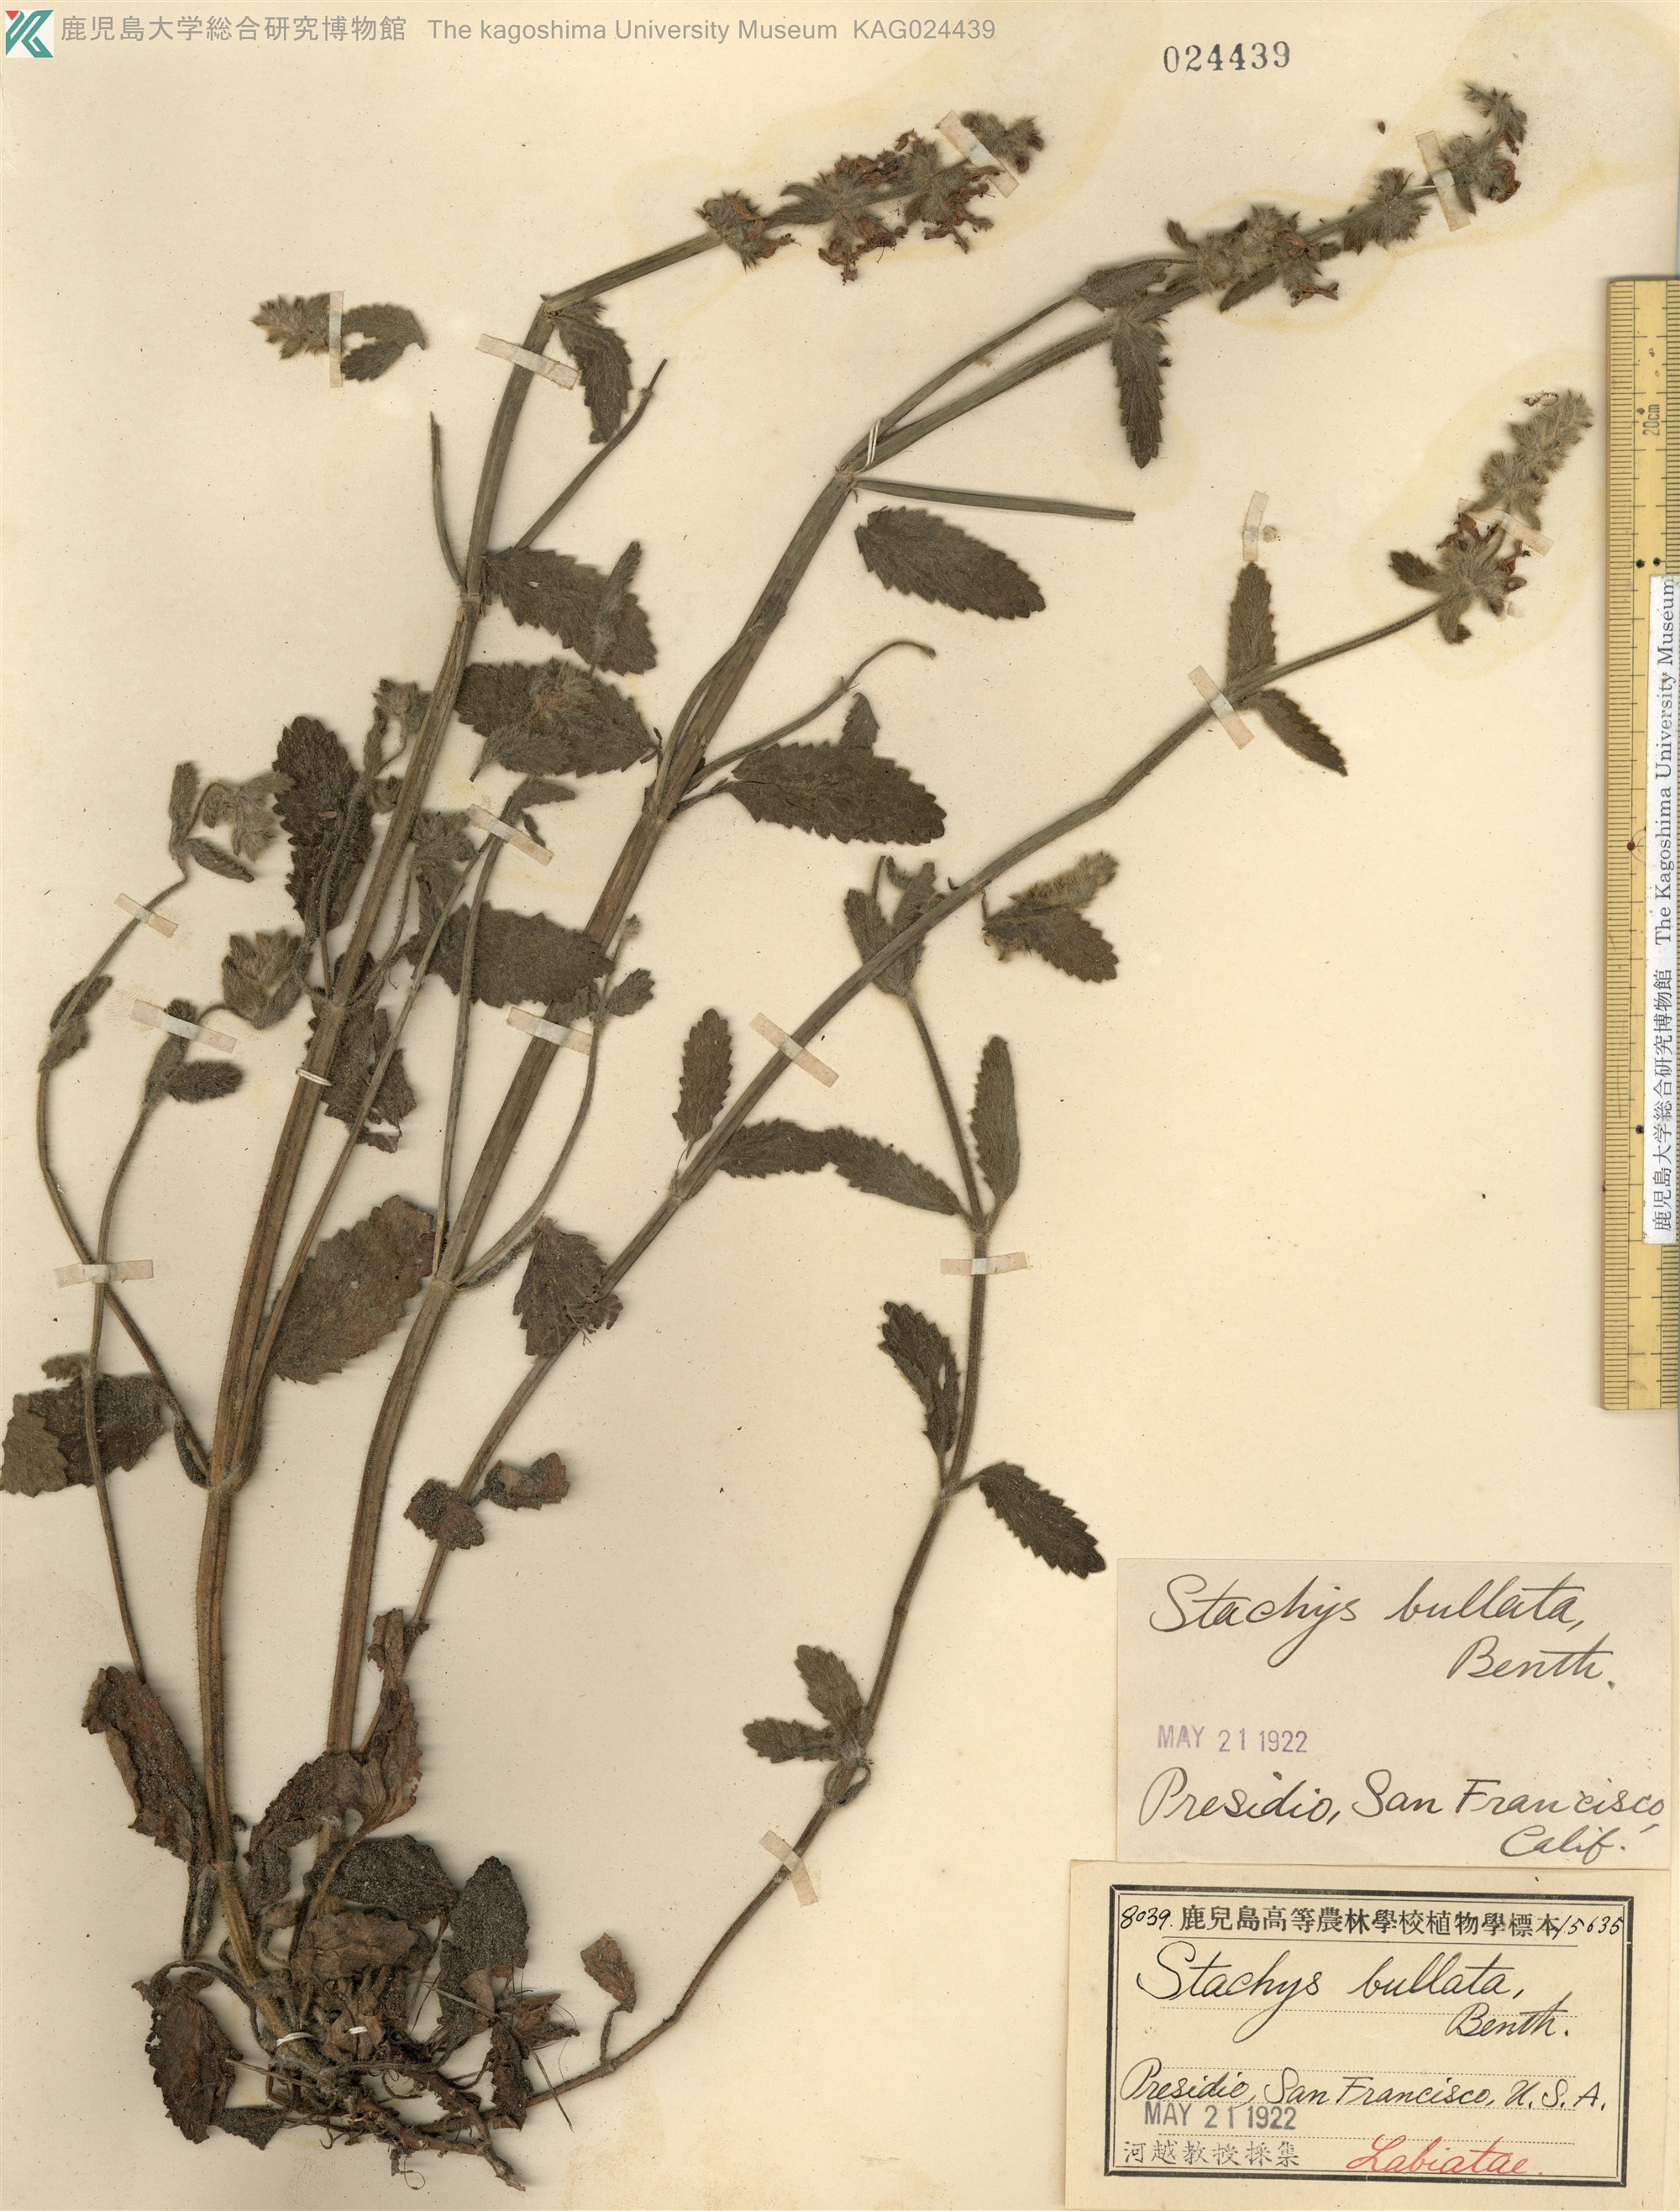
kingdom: Plantae
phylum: Tracheophyta
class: Magnoliopsida
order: Lamiales
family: Lamiaceae
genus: Stachys
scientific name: Stachys bullata
